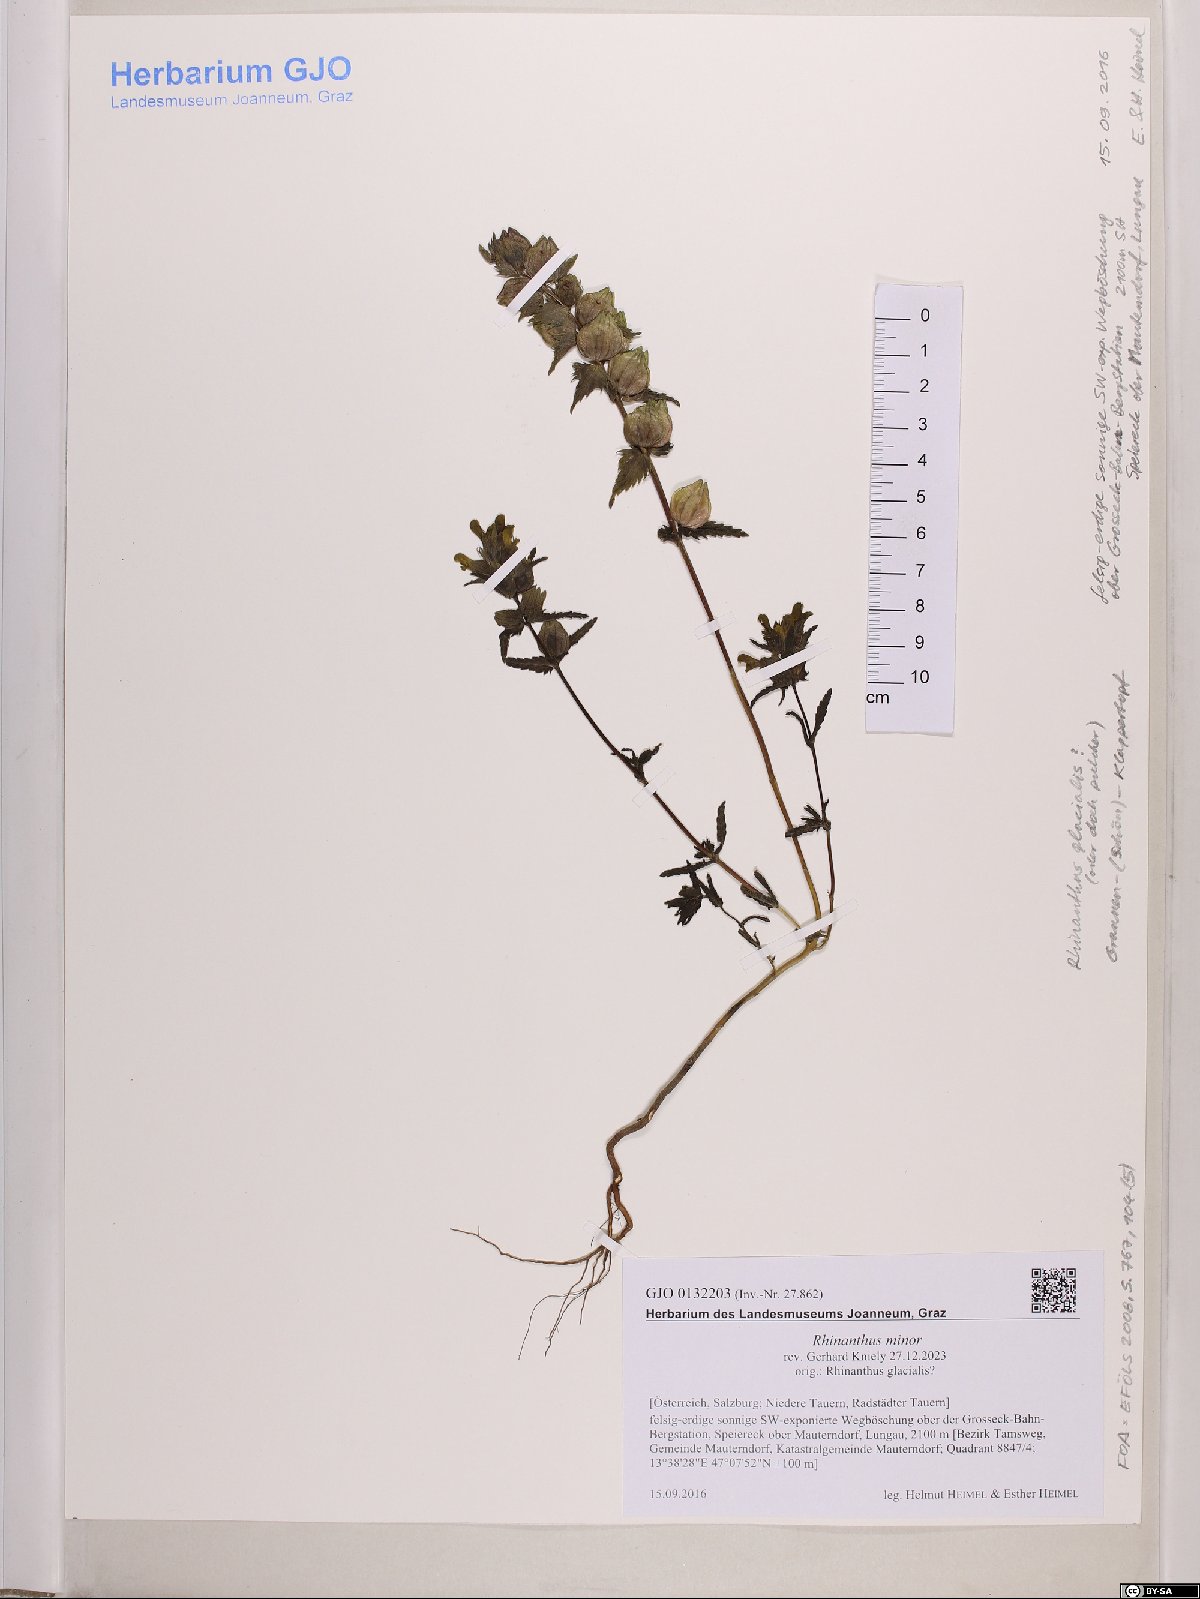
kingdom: Plantae
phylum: Tracheophyta
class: Magnoliopsida
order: Lamiales
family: Orobanchaceae
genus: Rhinanthus
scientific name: Rhinanthus minor
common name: Yellow-rattle
